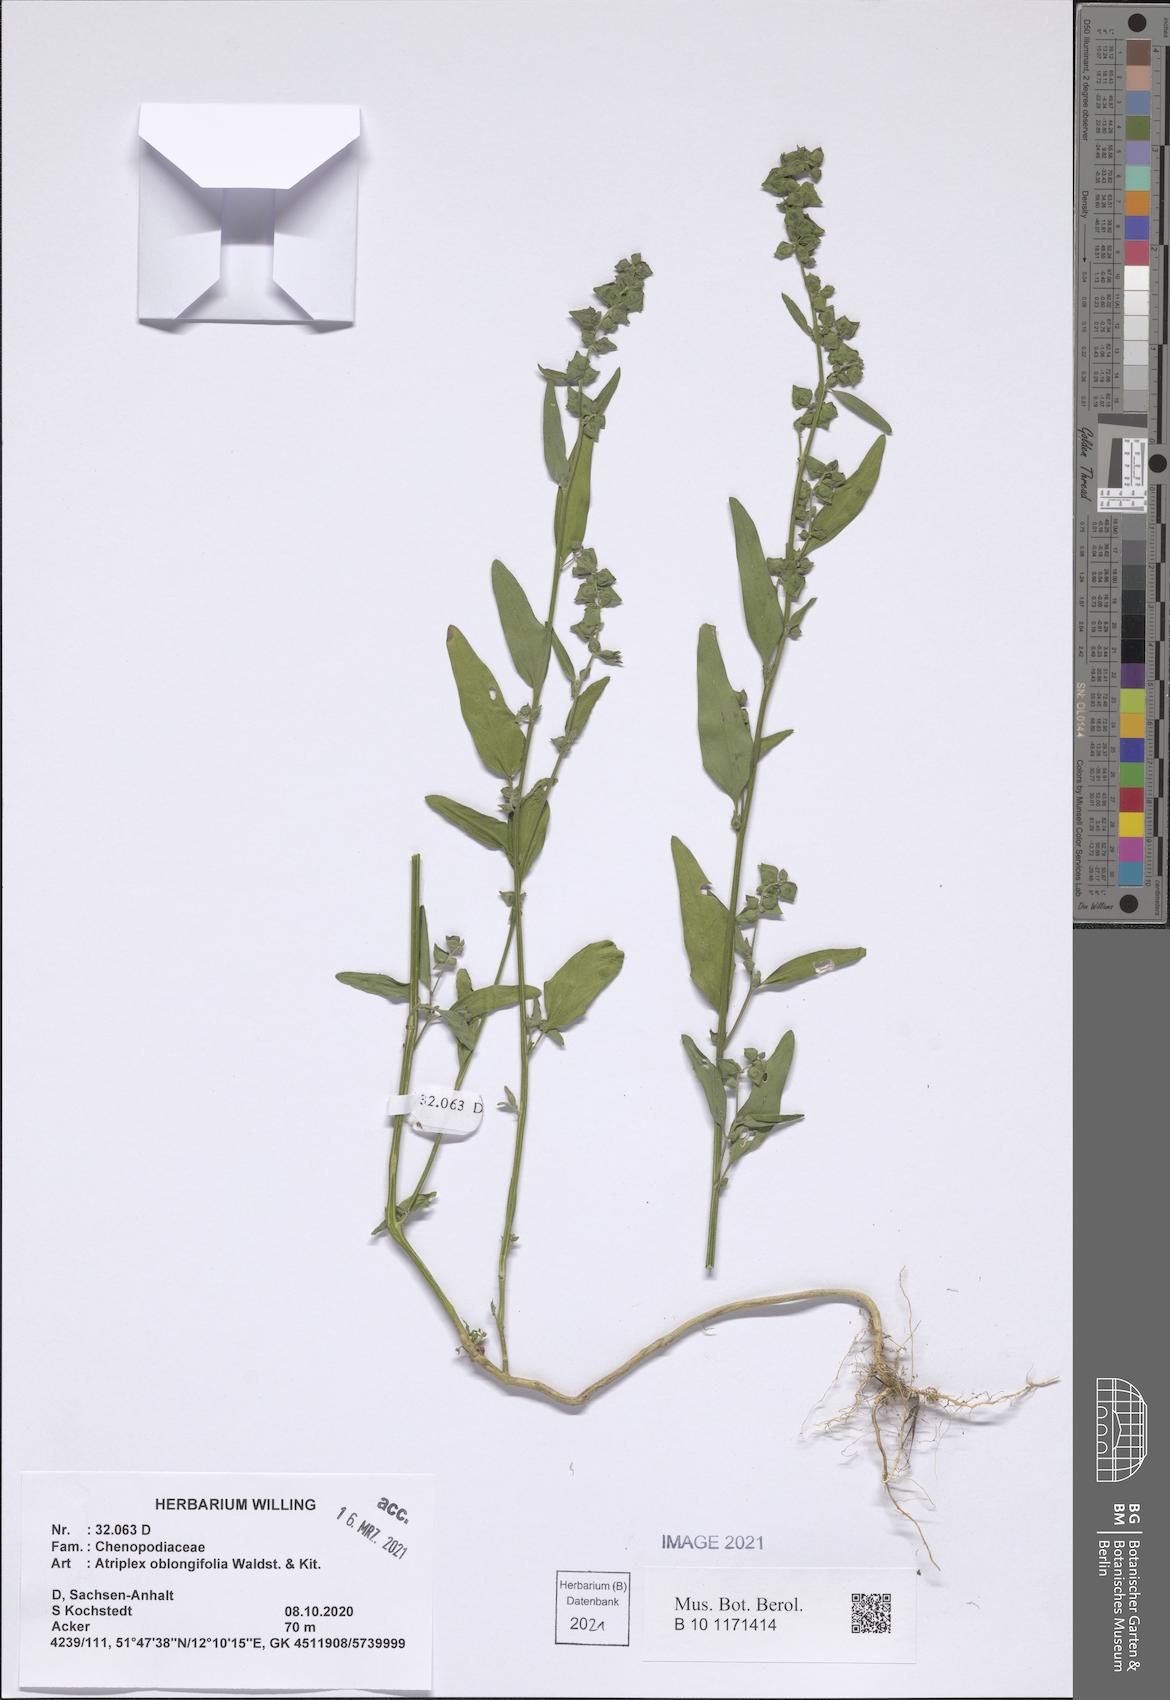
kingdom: Plantae
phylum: Tracheophyta
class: Magnoliopsida
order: Caryophyllales
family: Amaranthaceae
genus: Atriplex
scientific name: Atriplex oblongifolia
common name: Oblongleaf orache
